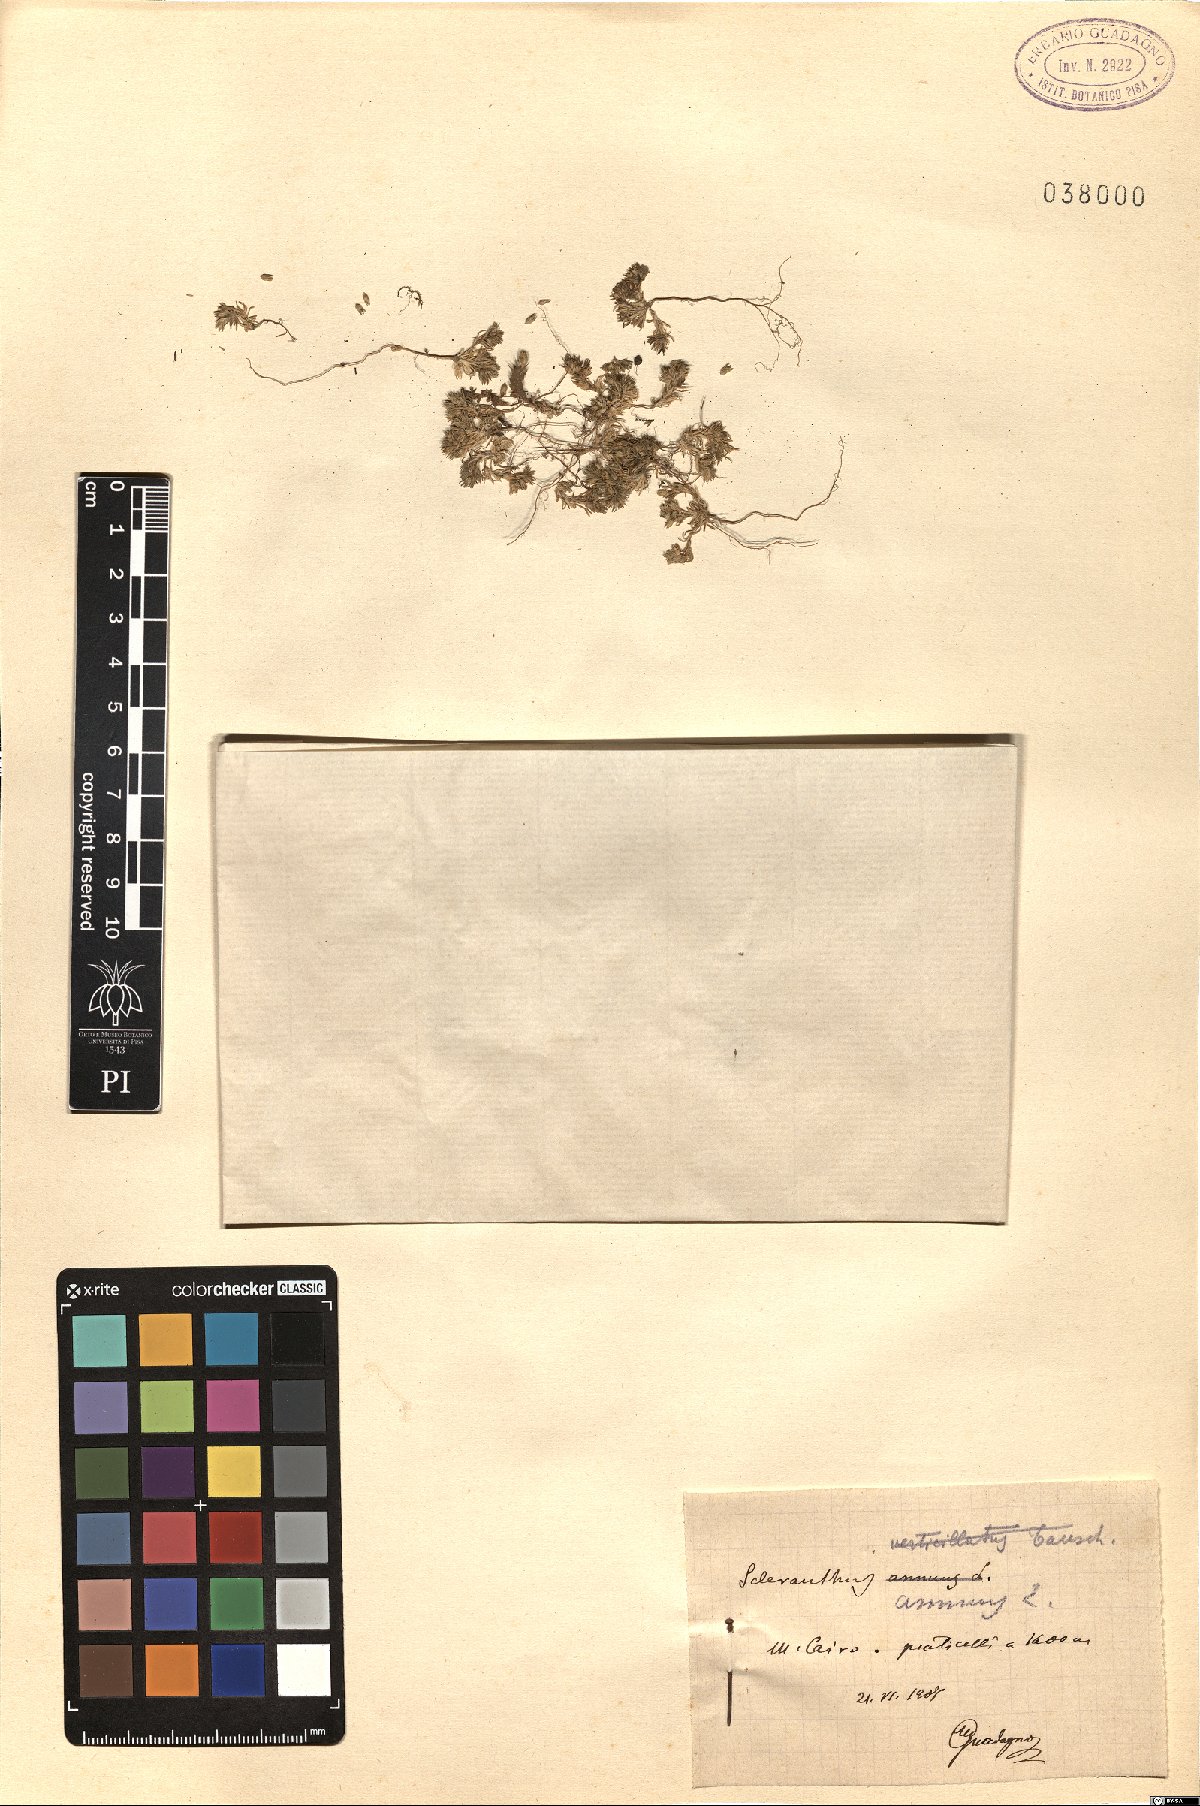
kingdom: Plantae
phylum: Tracheophyta
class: Magnoliopsida
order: Caryophyllales
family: Caryophyllaceae
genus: Scleranthus
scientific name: Scleranthus annuus
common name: Annual knawel
